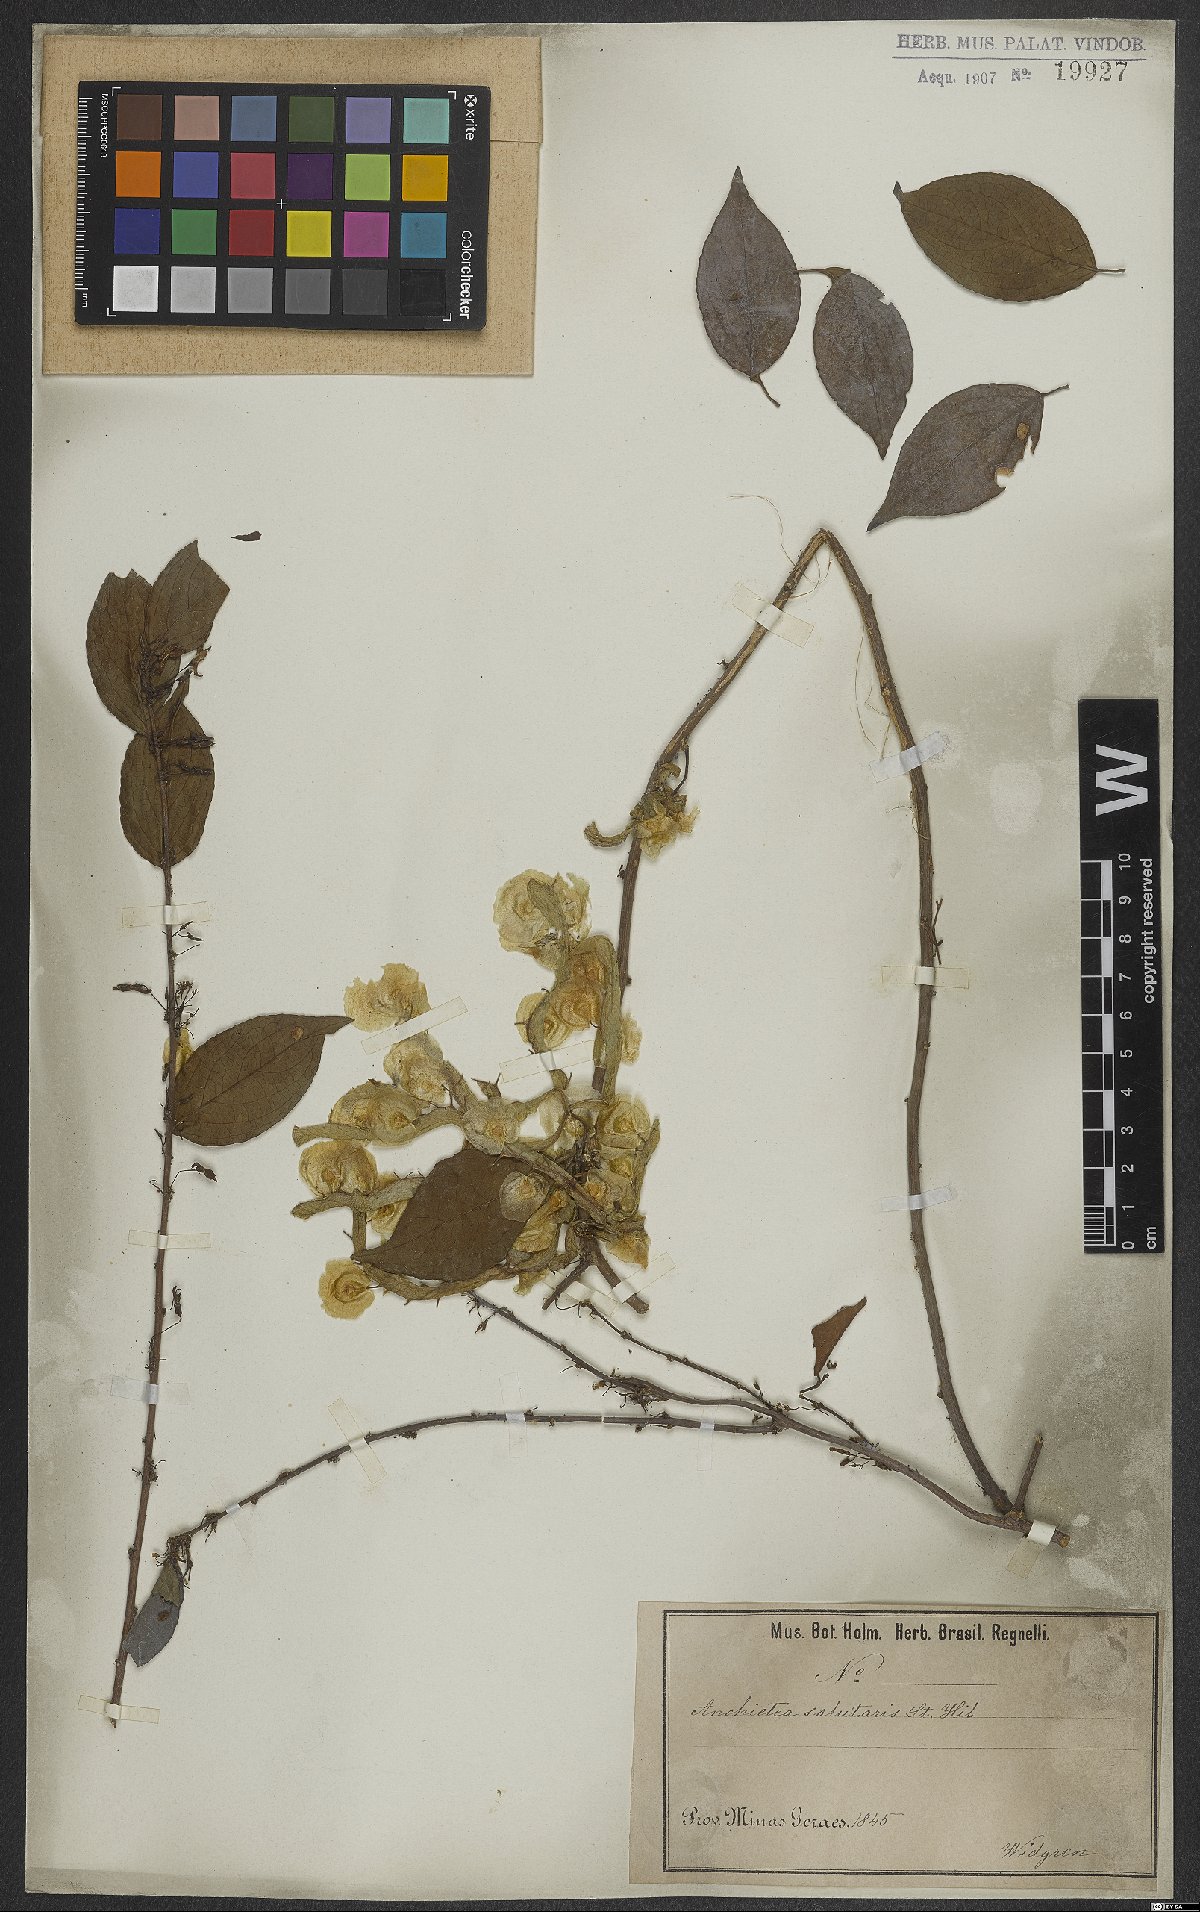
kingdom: Plantae
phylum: Tracheophyta
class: Magnoliopsida
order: Malpighiales
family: Violaceae
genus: Anchietea
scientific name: Anchietea pyrifolia
